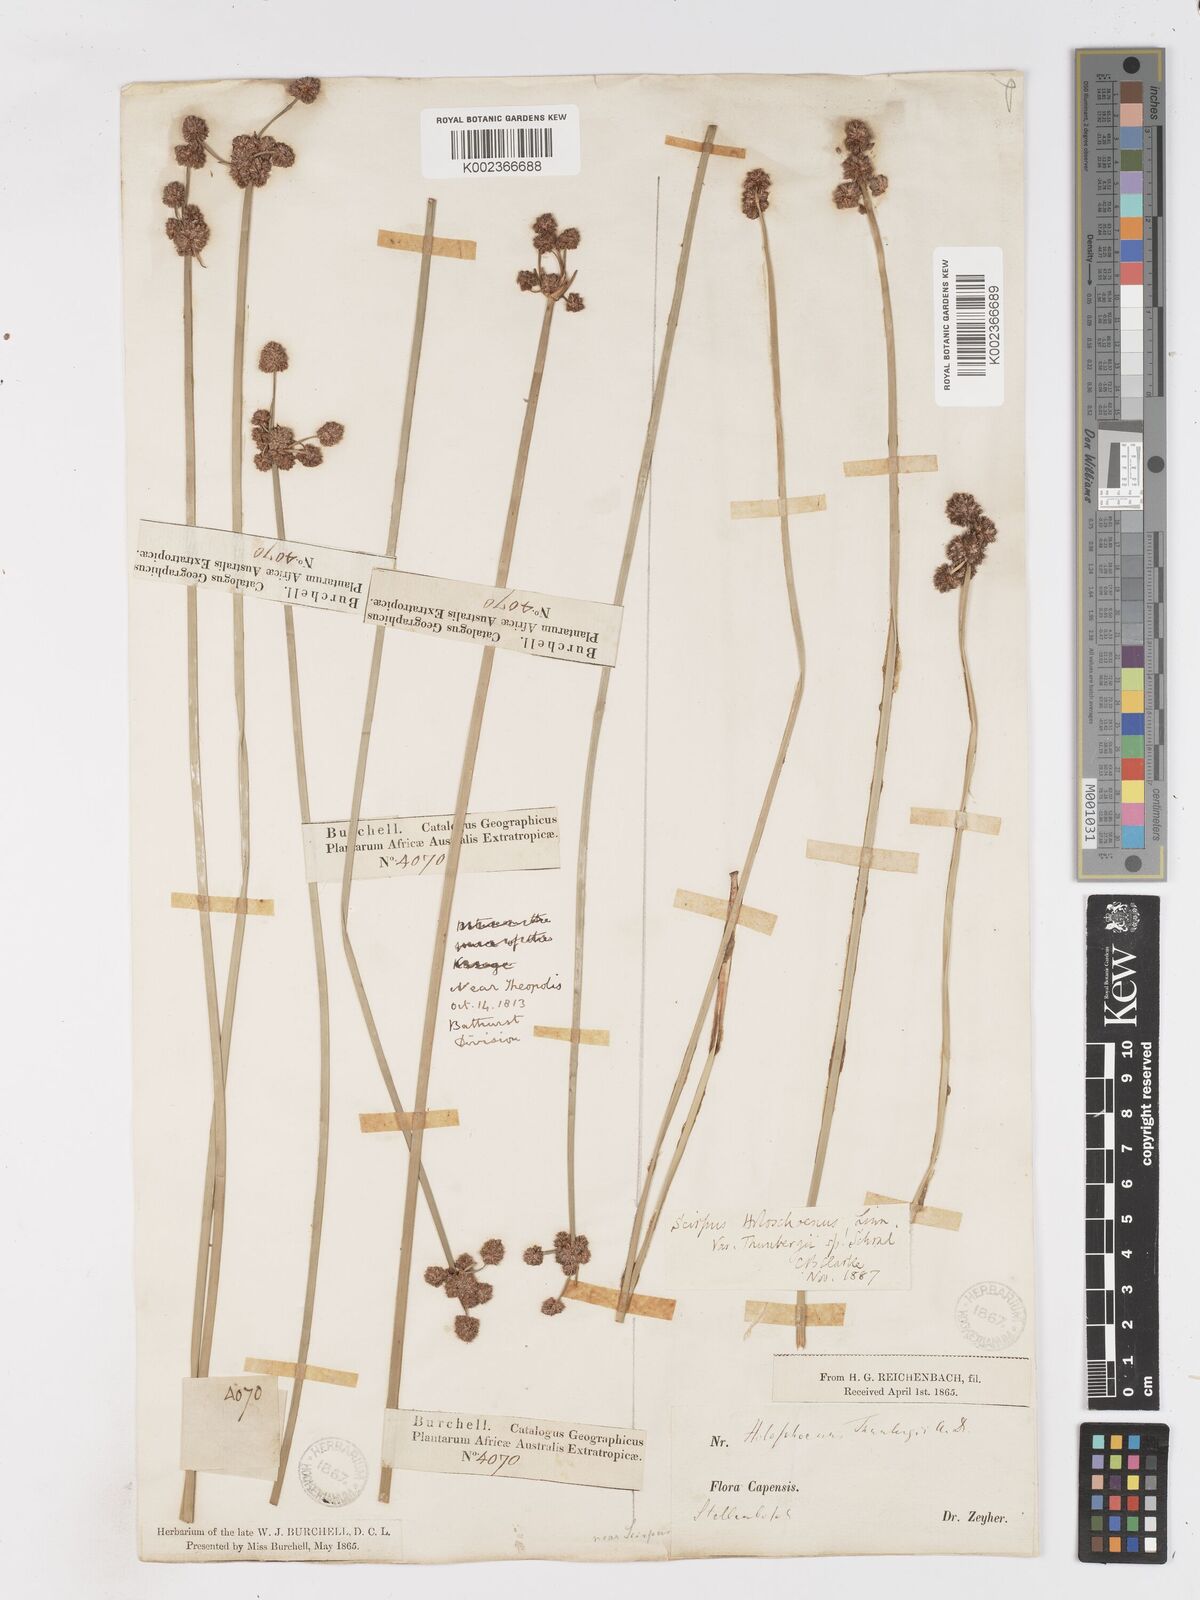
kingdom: Plantae
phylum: Tracheophyta
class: Liliopsida
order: Poales
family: Cyperaceae
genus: Scirpoides
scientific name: Scirpoides holoschoenus
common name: Round-headed club-rush
